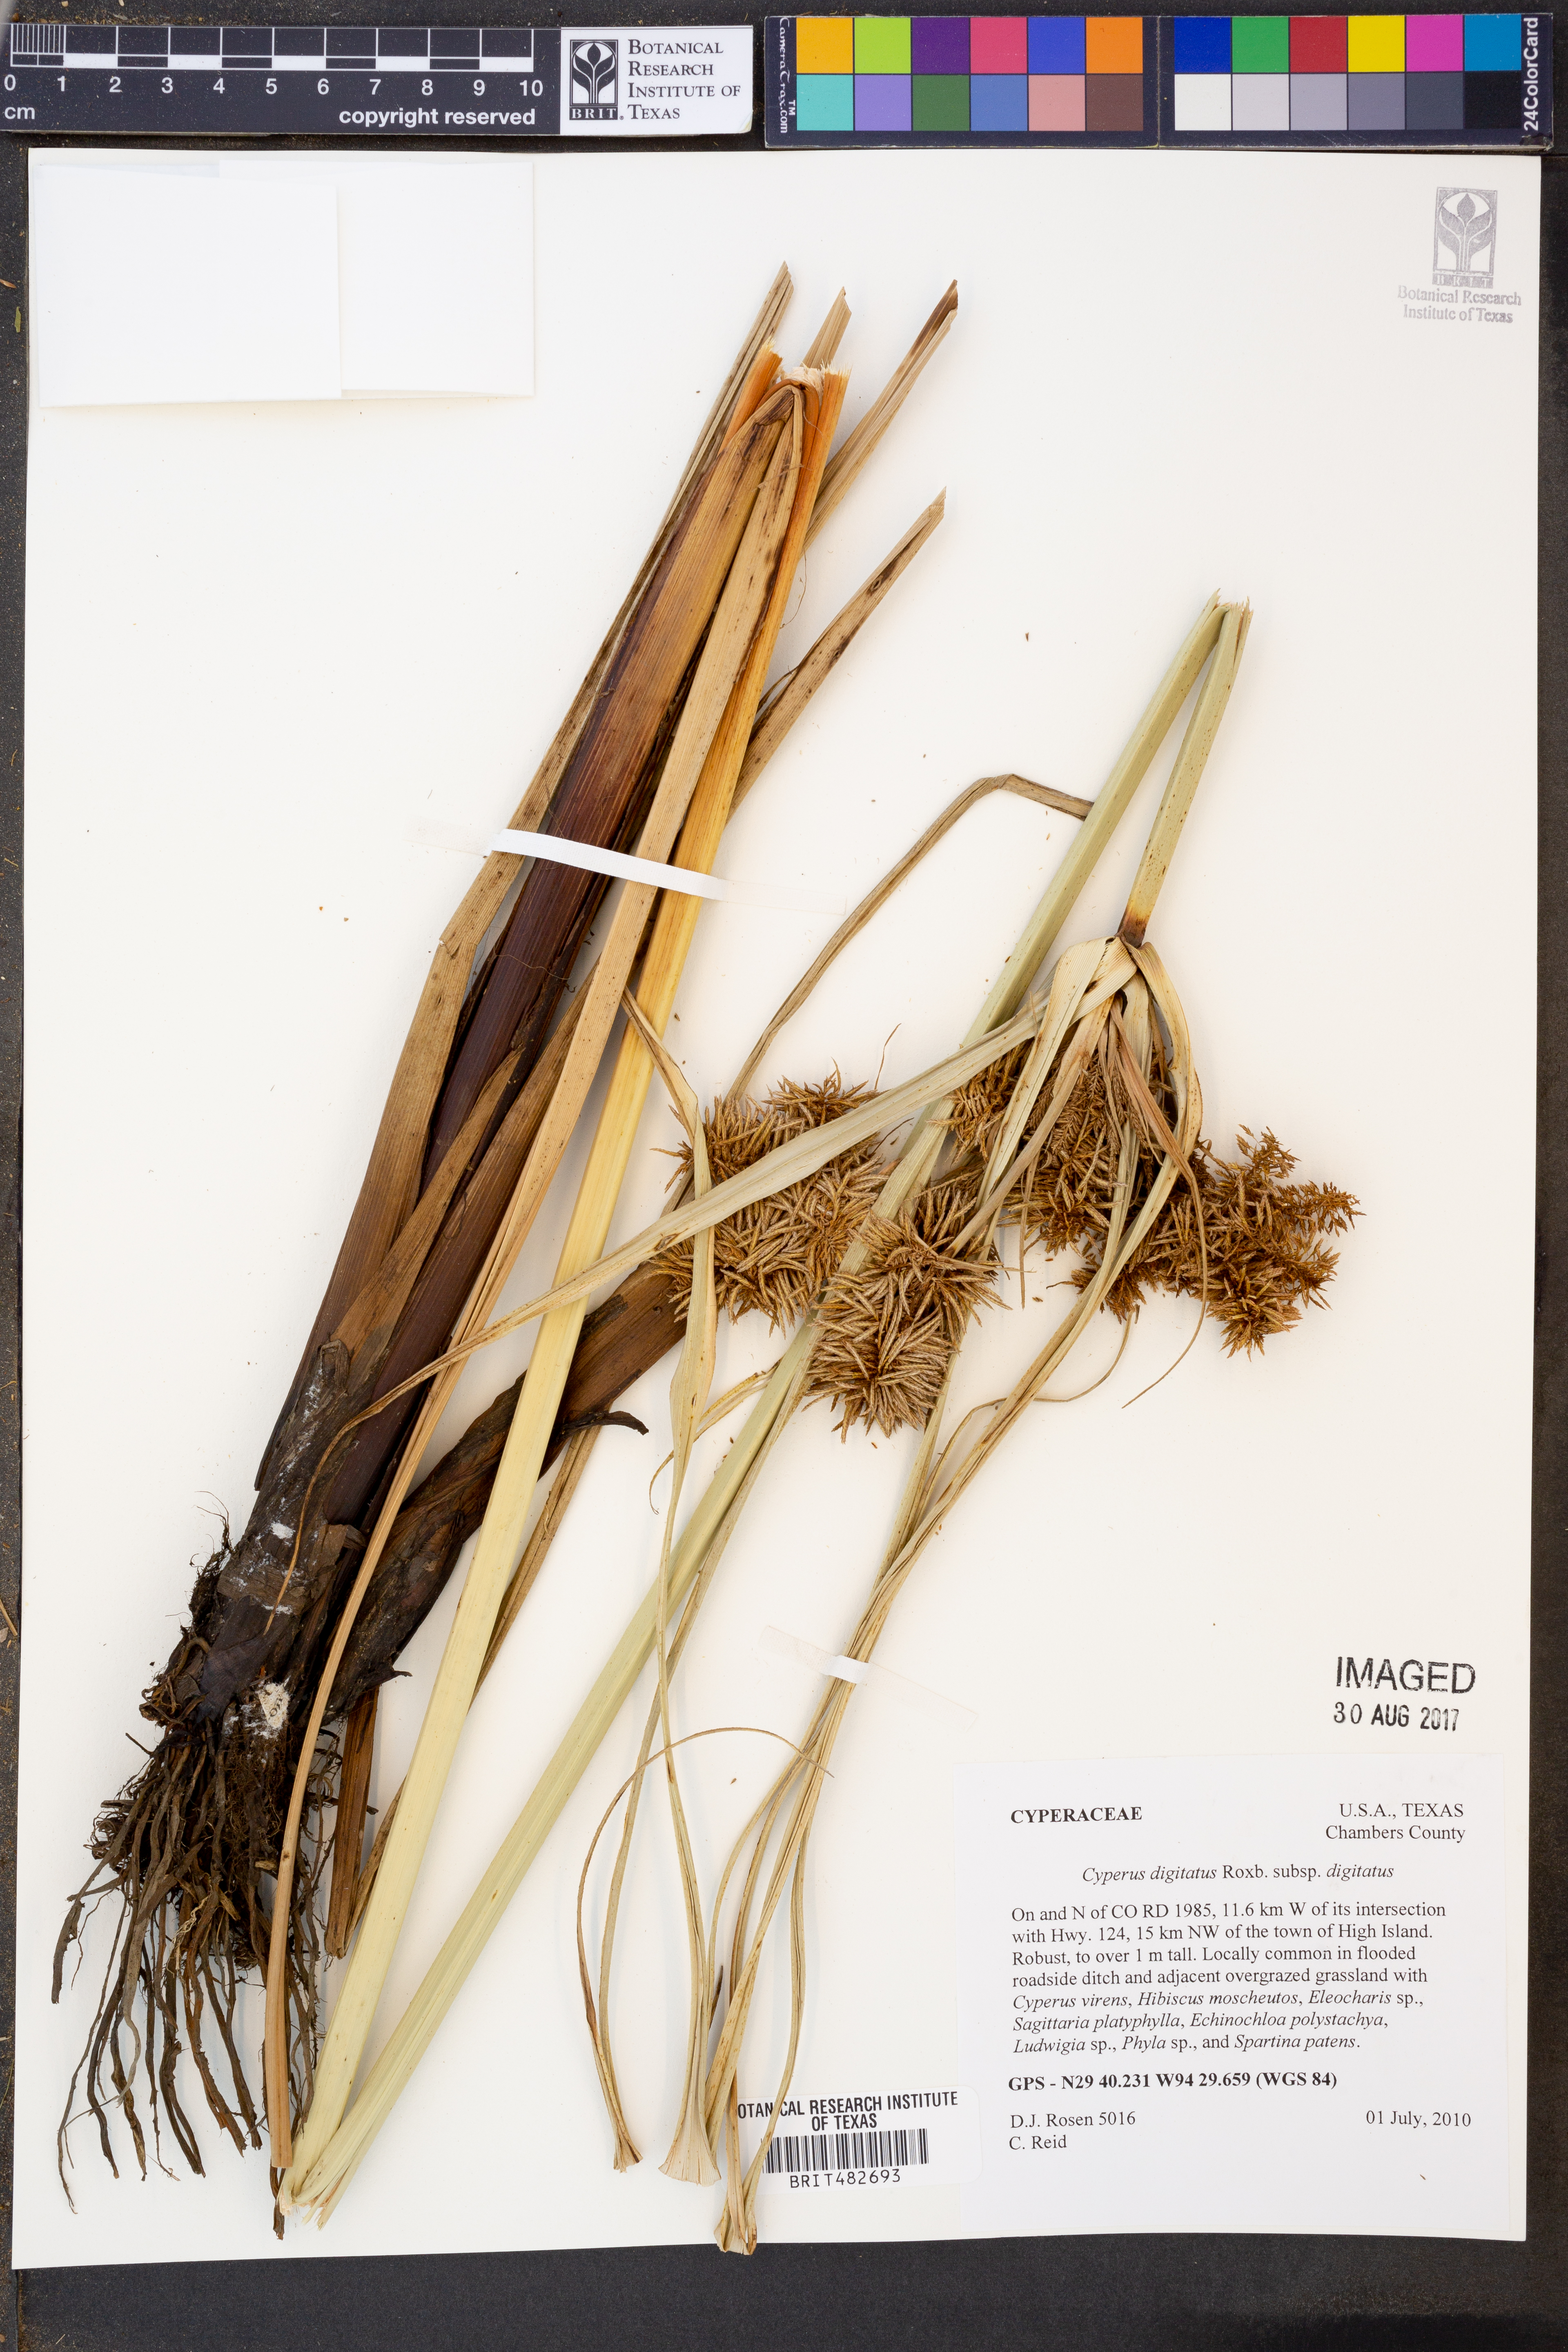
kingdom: Plantae
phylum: Tracheophyta
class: Liliopsida
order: Poales
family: Cyperaceae
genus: Cyperus
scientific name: Cyperus digitatus
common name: Finger flatsedge
